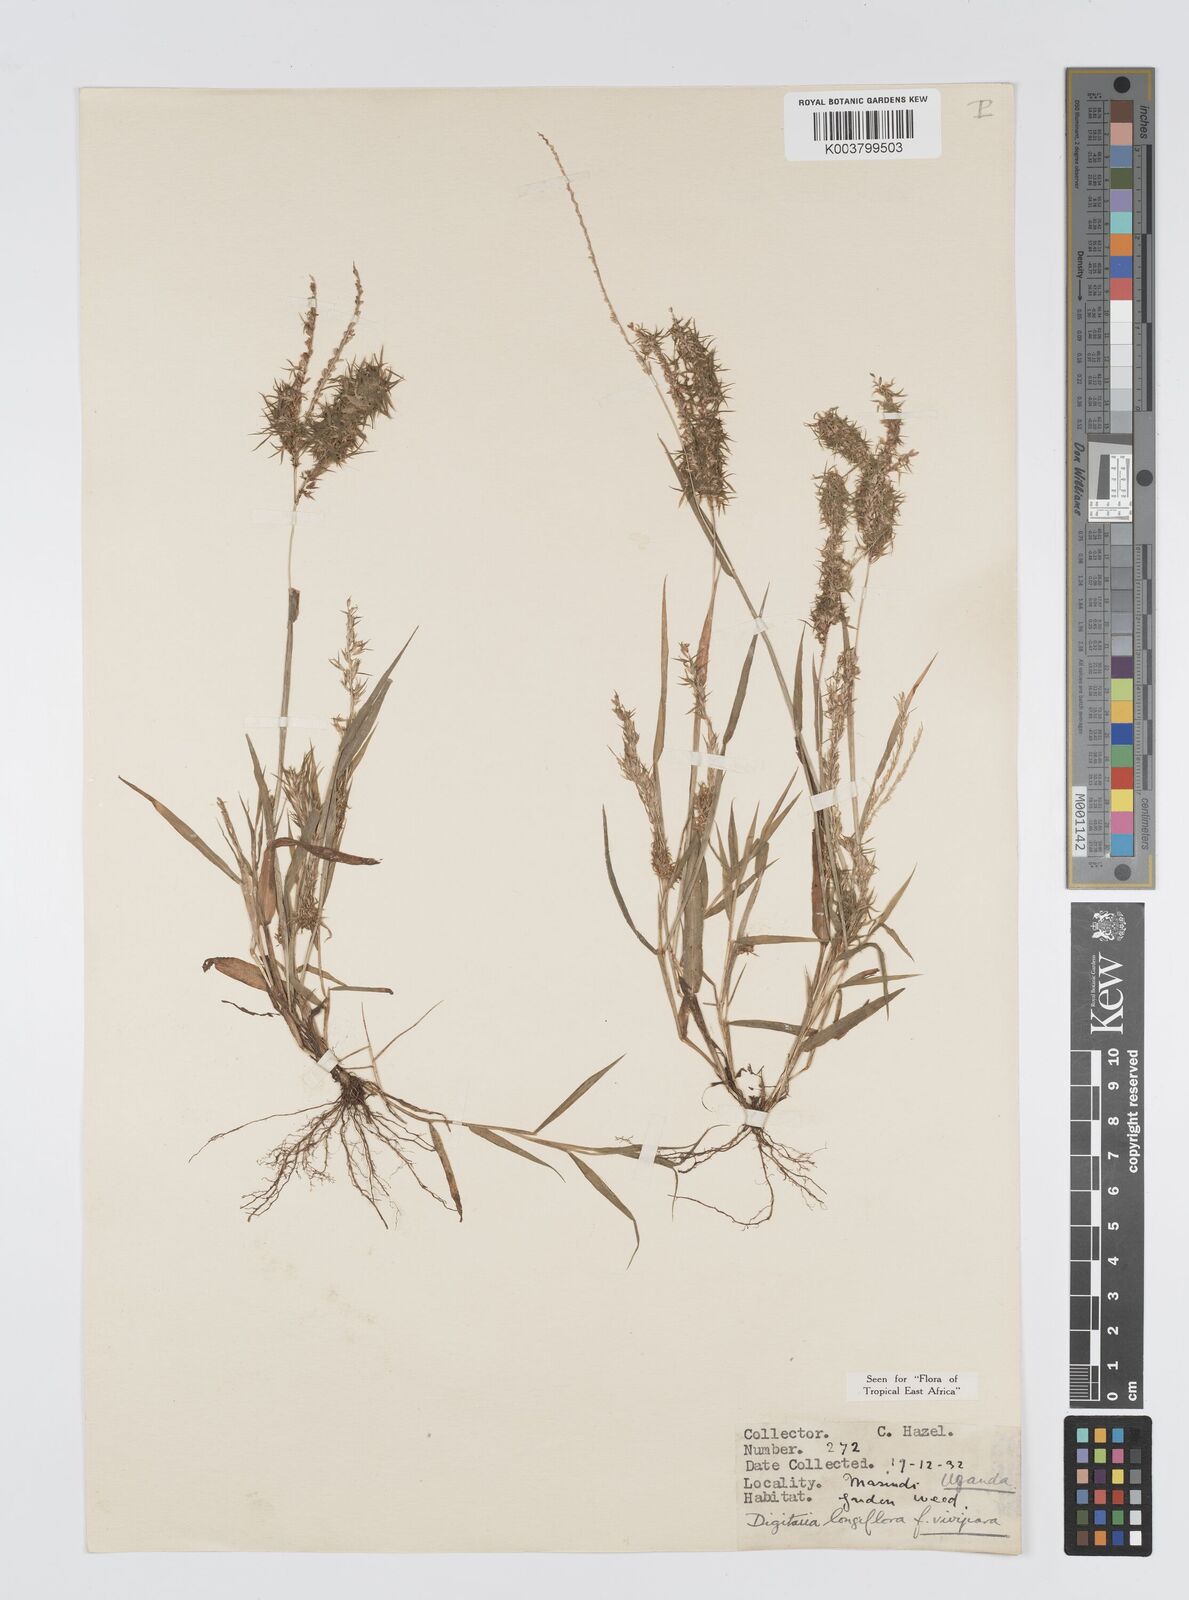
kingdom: Plantae
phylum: Tracheophyta
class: Liliopsida
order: Poales
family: Poaceae
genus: Digitaria
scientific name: Digitaria longiflora
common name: Wire crabgrass
